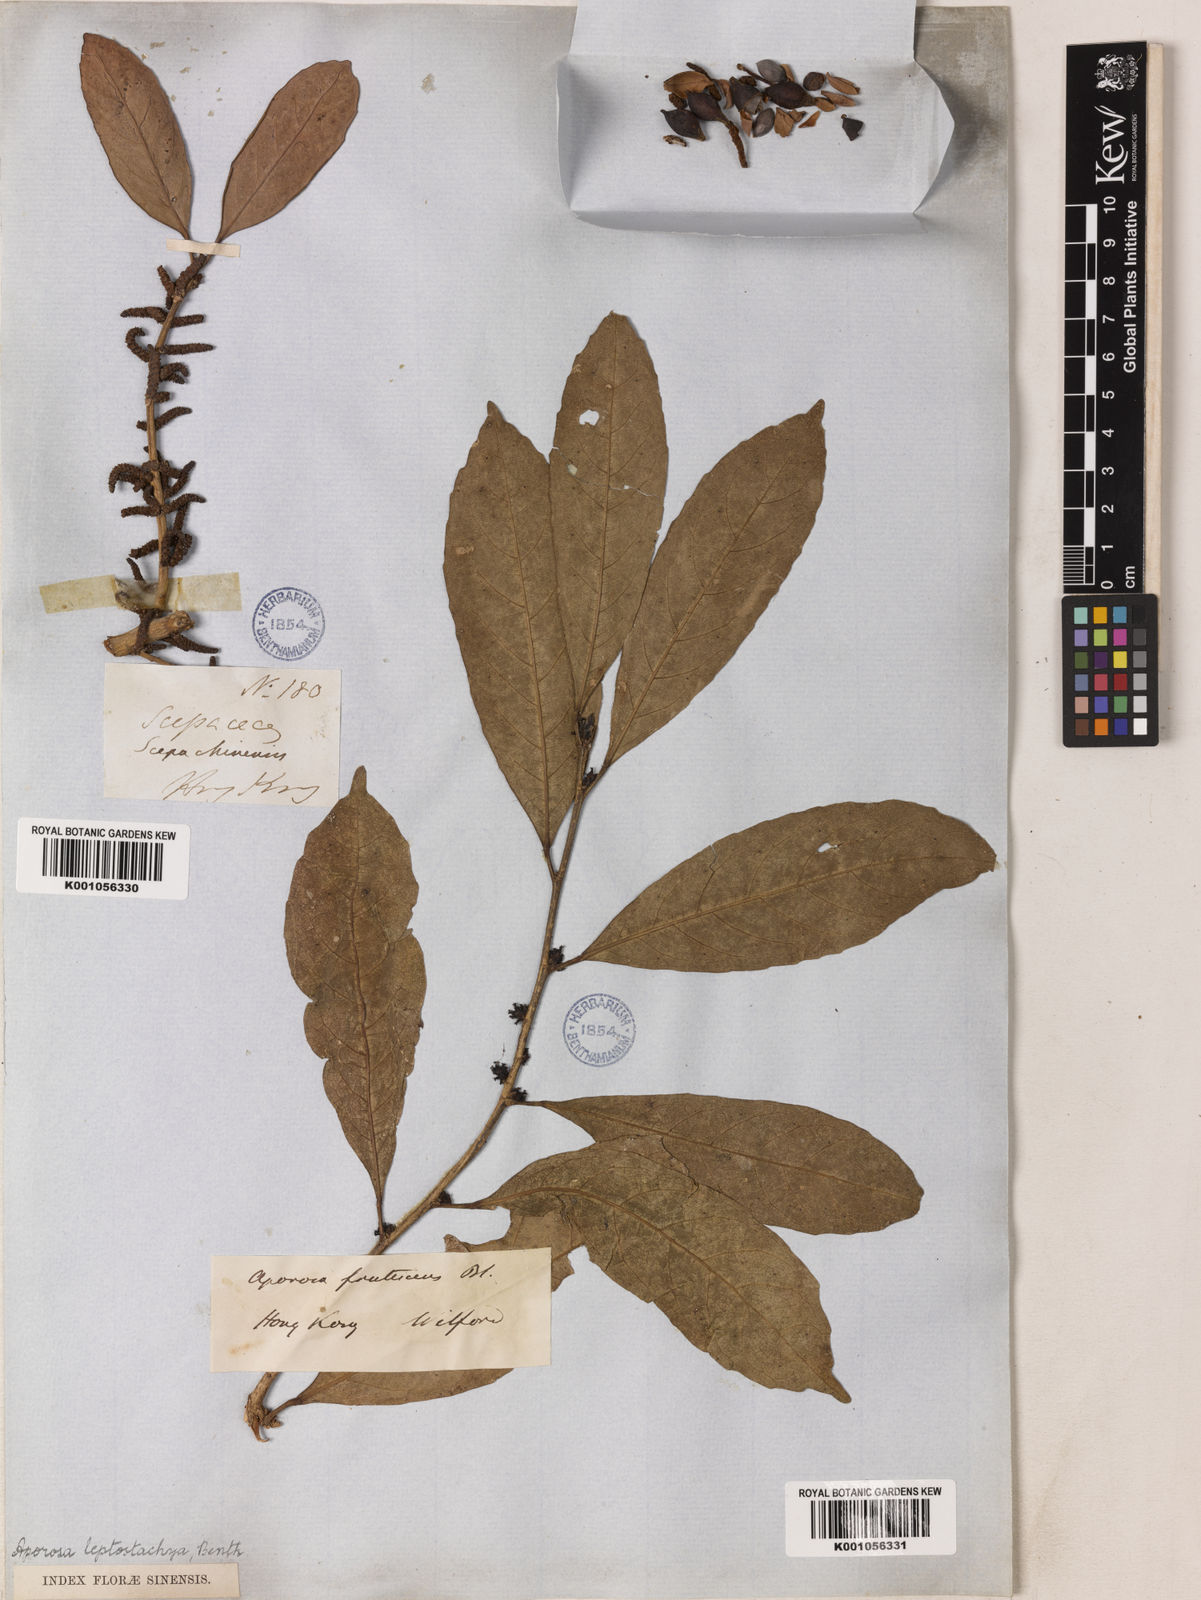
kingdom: Plantae
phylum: Tracheophyta
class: Magnoliopsida
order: Malpighiales
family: Phyllanthaceae
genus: Aporosa
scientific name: Aporosa octandra
